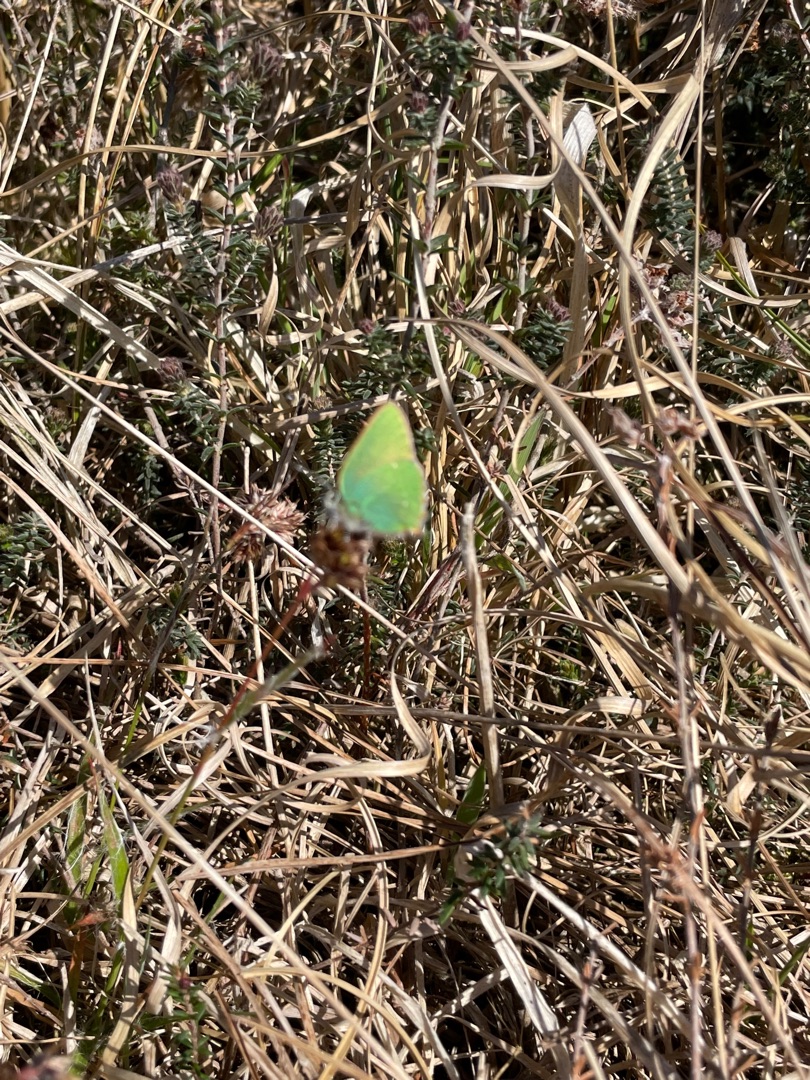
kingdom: Animalia
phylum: Arthropoda
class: Insecta
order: Lepidoptera
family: Lycaenidae
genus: Callophrys
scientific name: Callophrys rubi
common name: Grøn busksommerfugl
